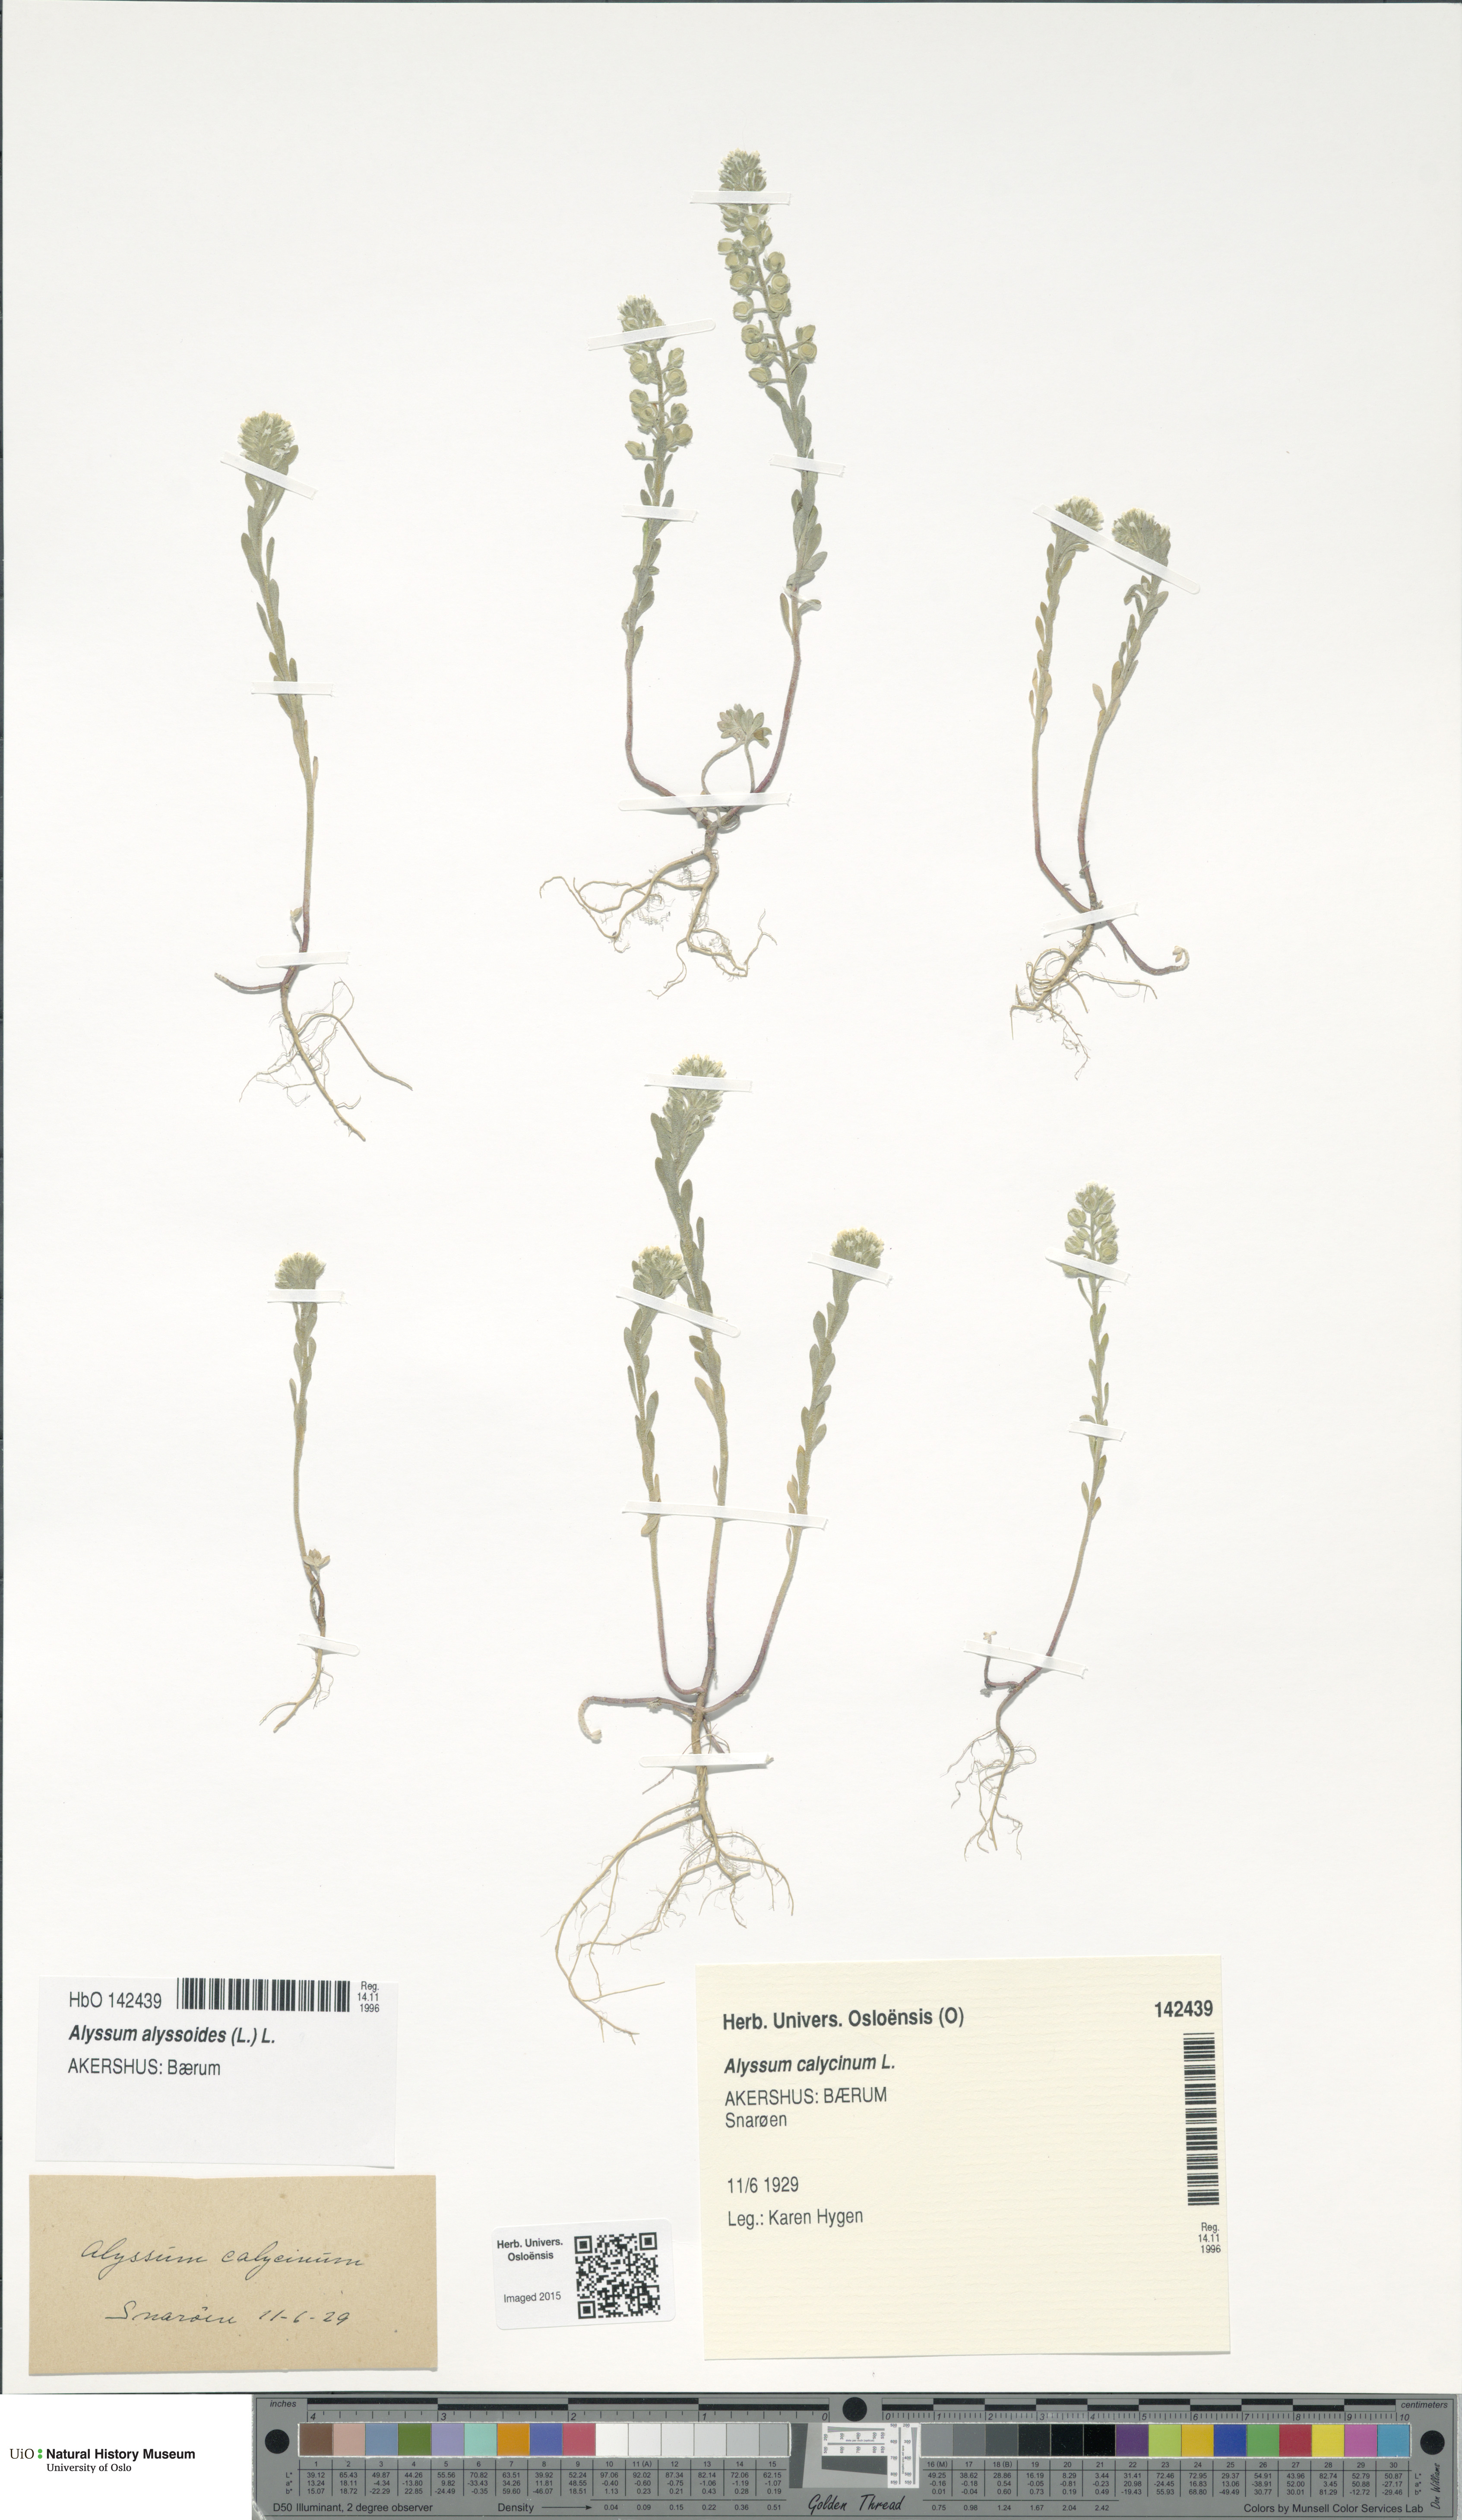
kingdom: Plantae
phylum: Tracheophyta
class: Magnoliopsida
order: Brassicales
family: Brassicaceae
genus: Alyssum
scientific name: Alyssum alyssoides
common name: Small alison
